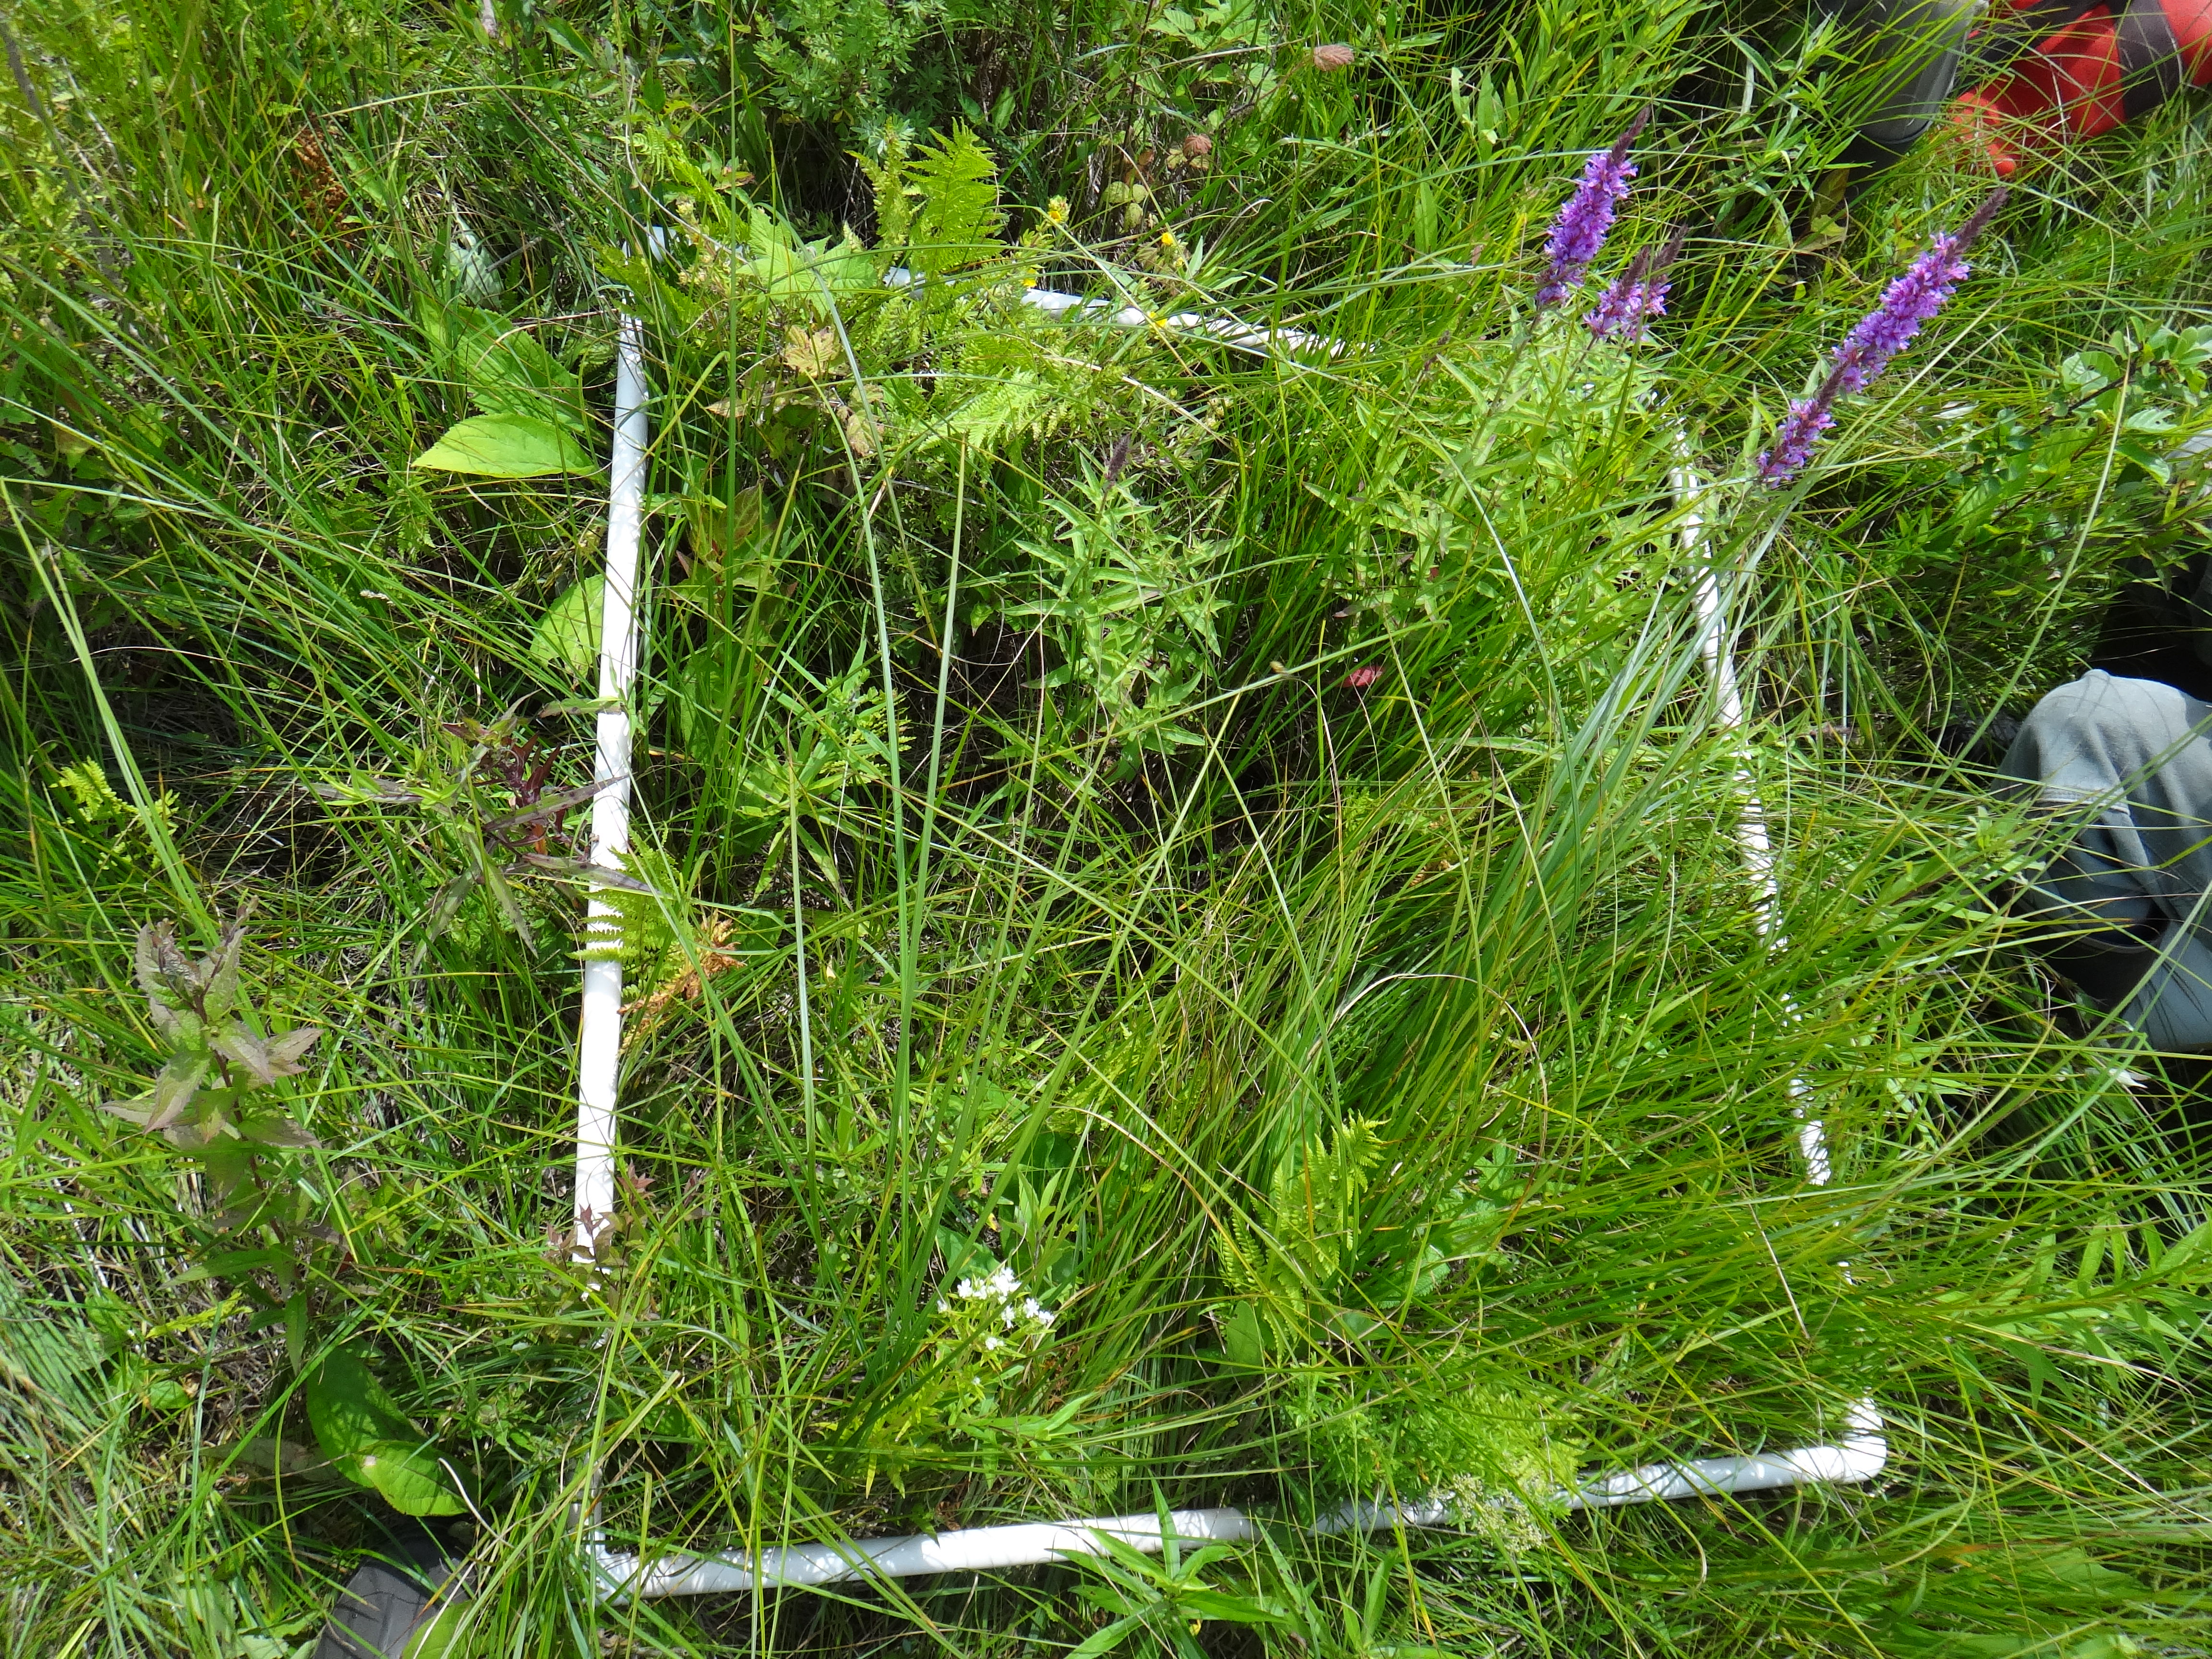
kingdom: Plantae
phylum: Tracheophyta
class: Magnoliopsida
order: Asterales
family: Asteraceae
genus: Solidago
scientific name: Solidago canadensis
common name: Canada goldenrod
